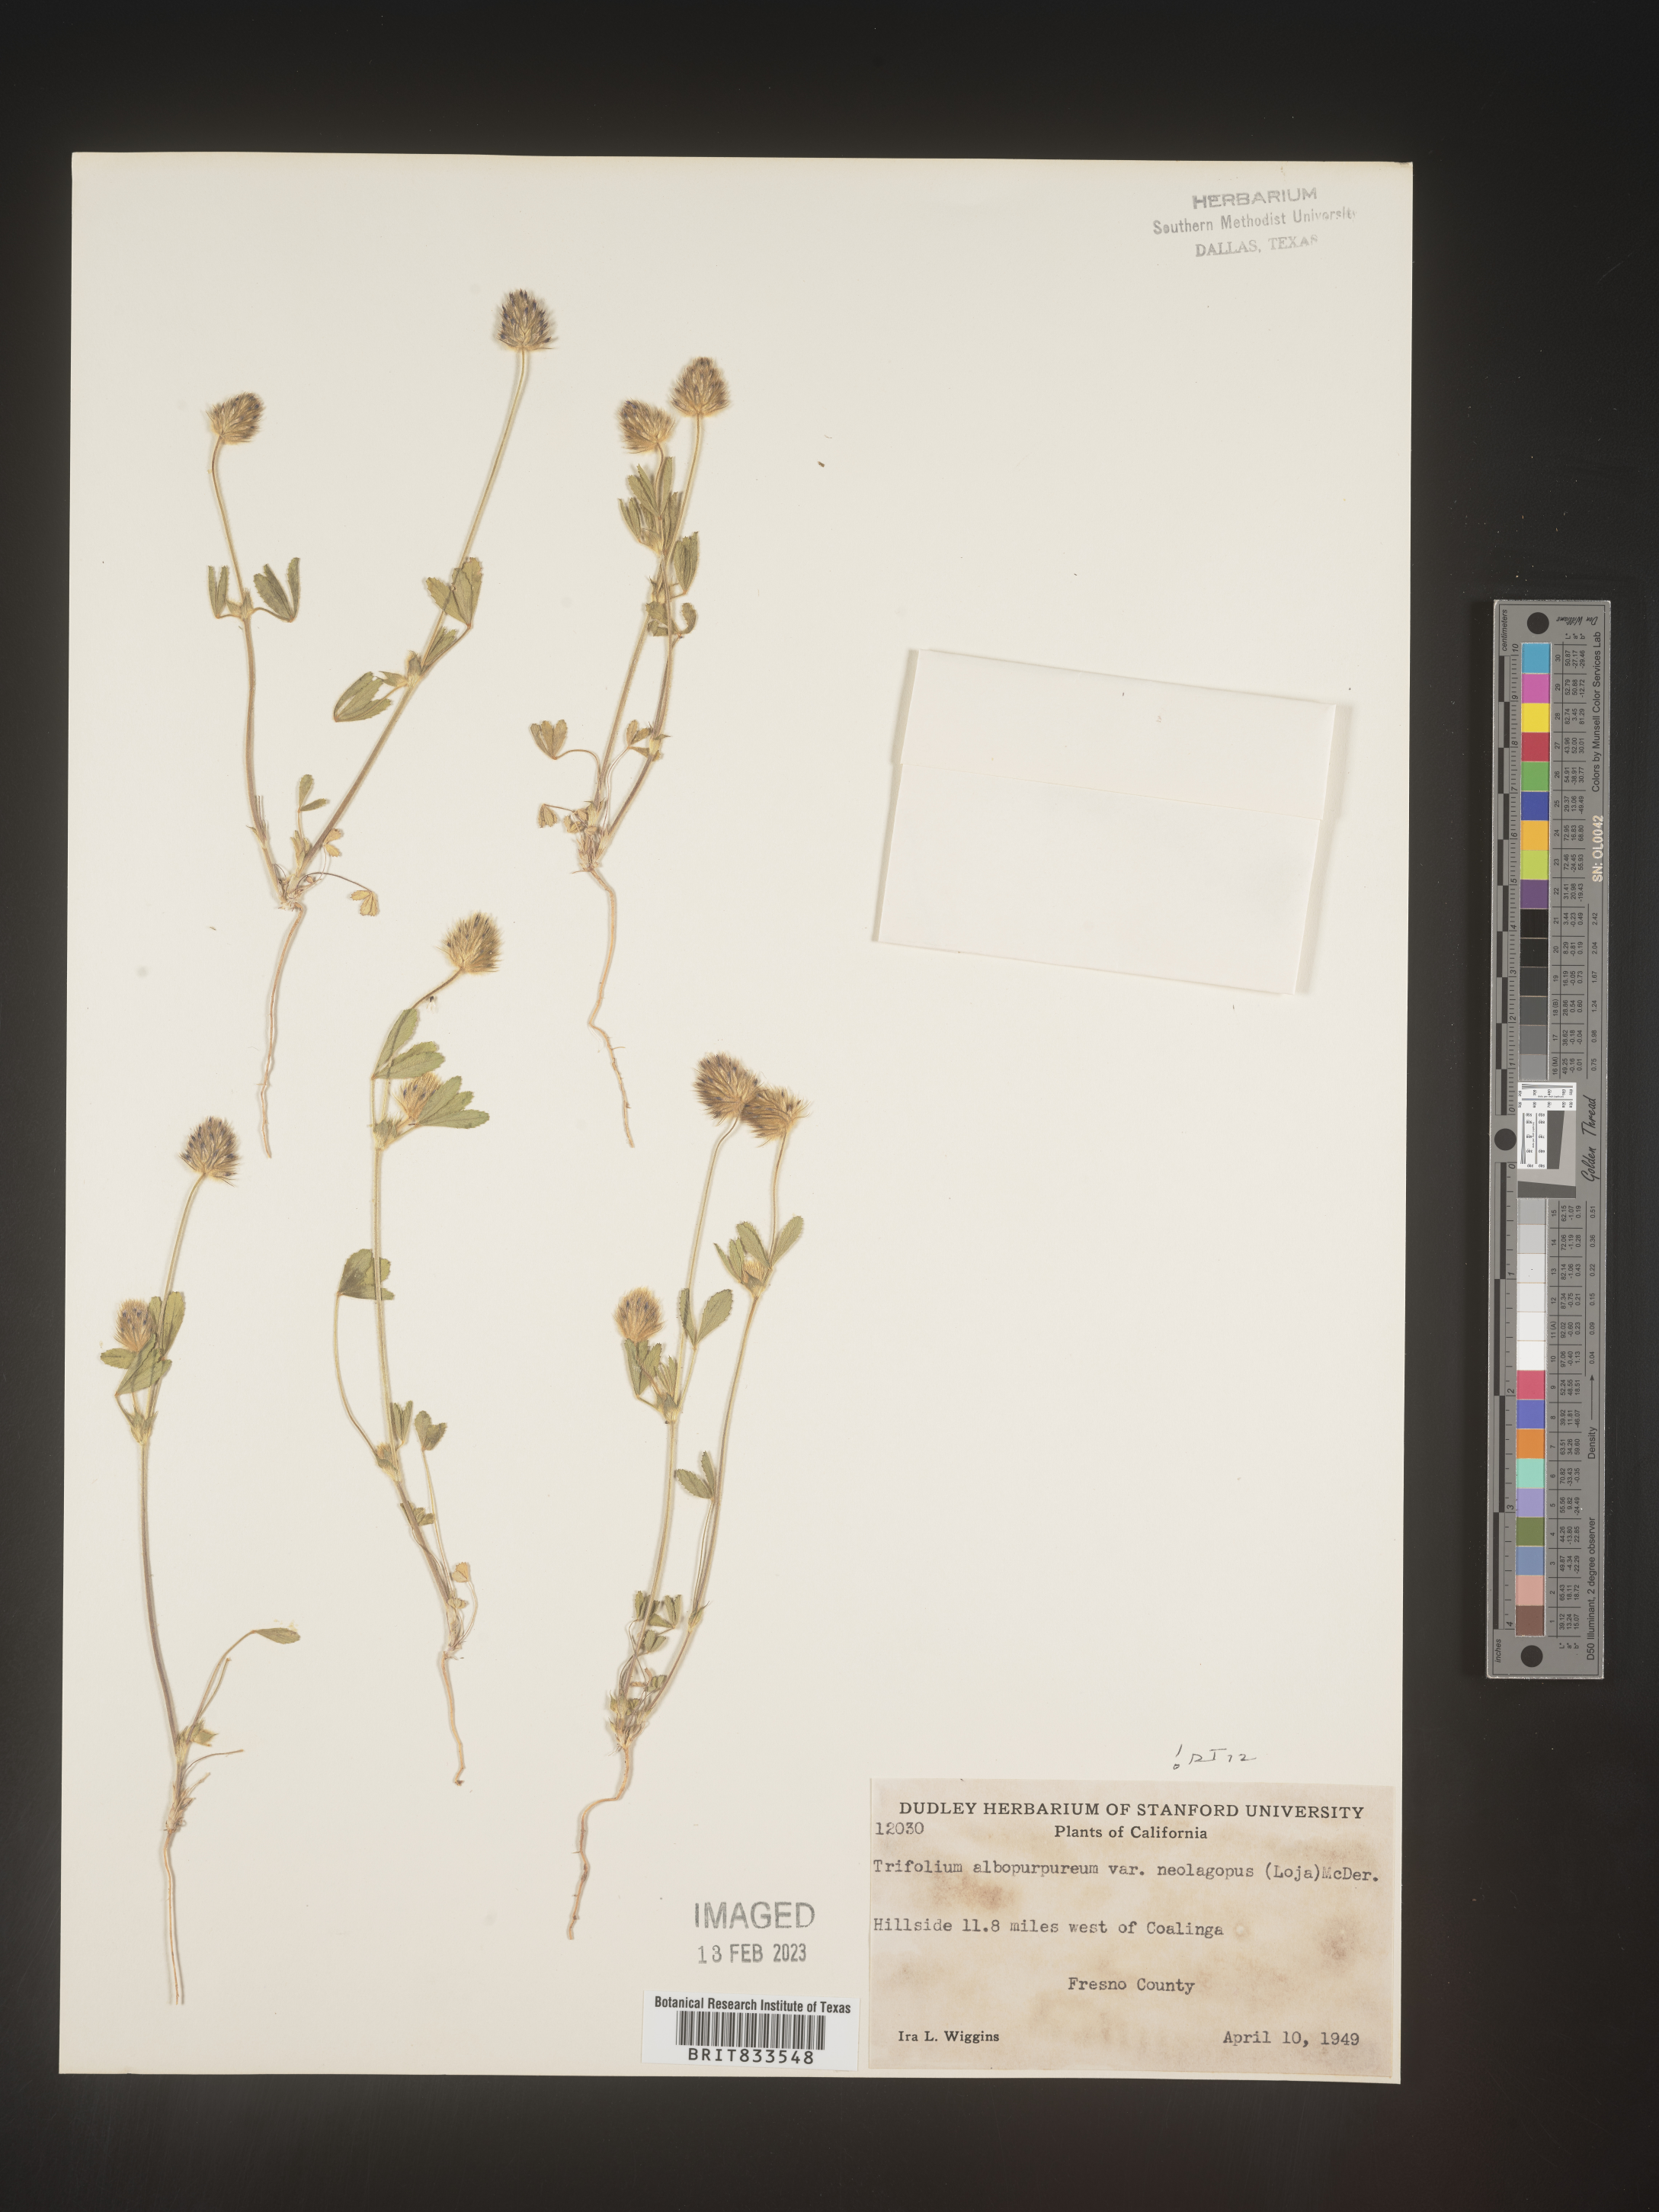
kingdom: Plantae
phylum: Tracheophyta
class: Magnoliopsida
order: Fabales
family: Fabaceae
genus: Trifolium
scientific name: Trifolium
